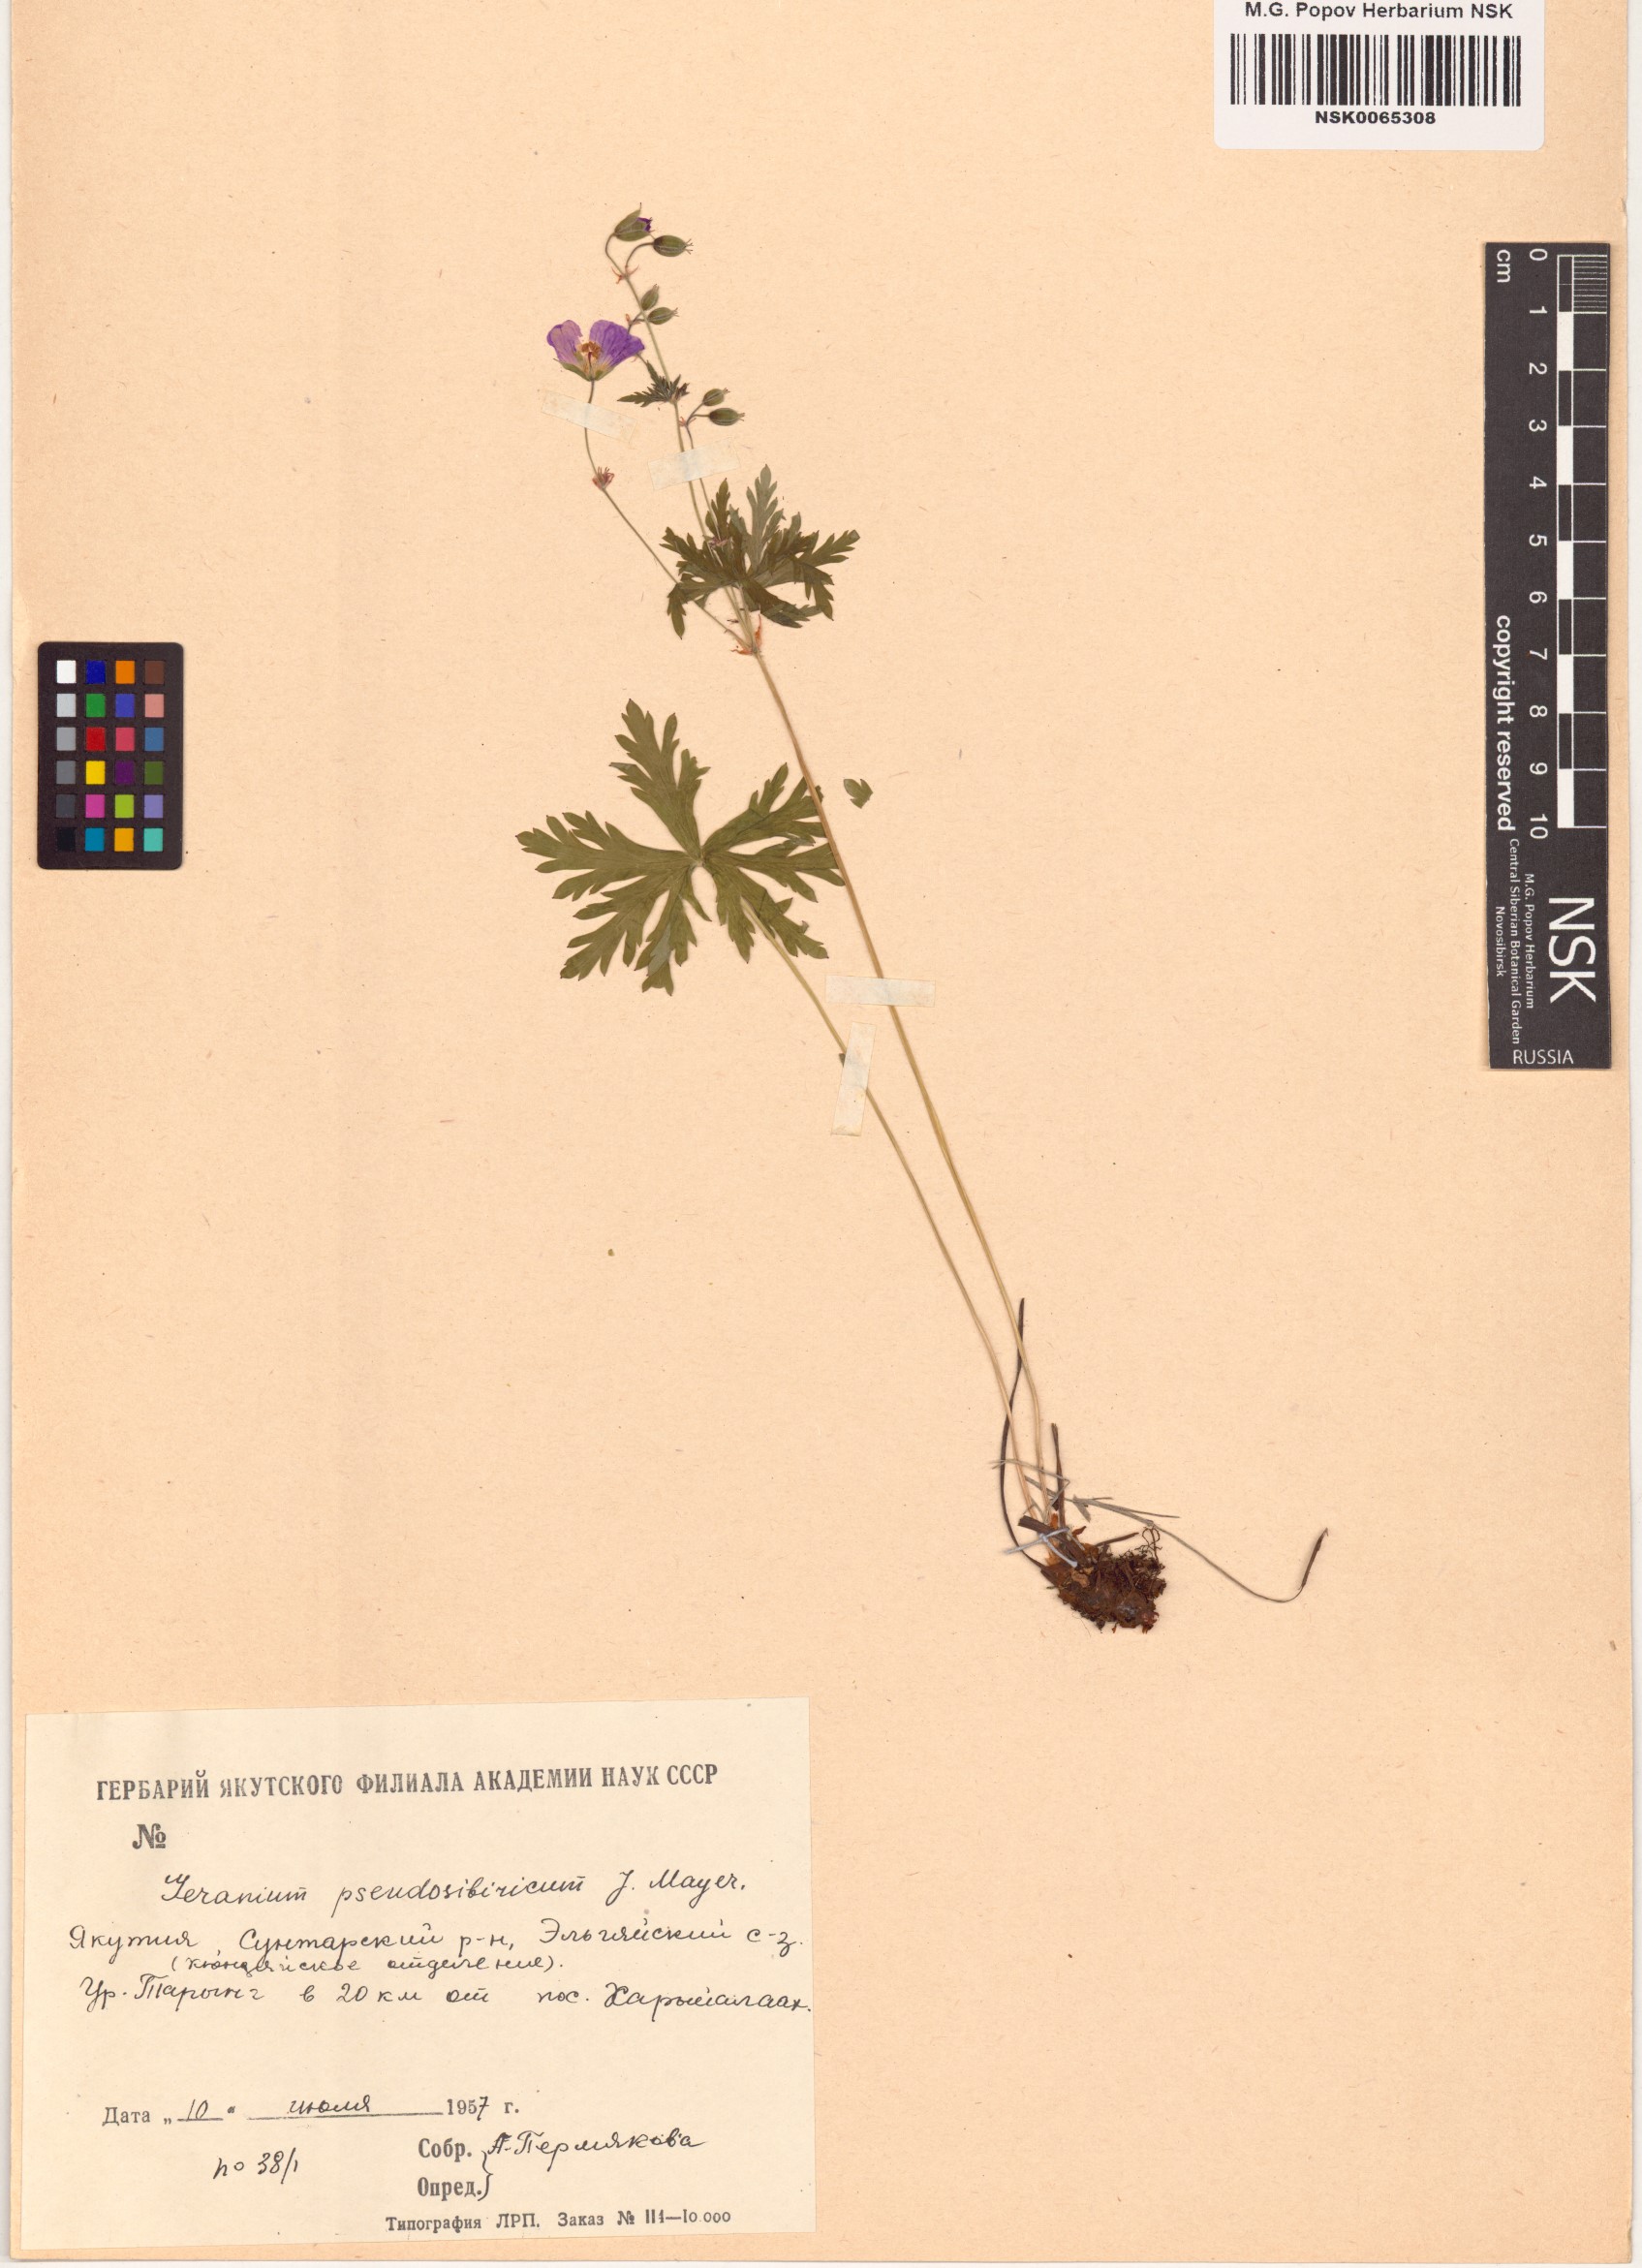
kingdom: Plantae
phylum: Tracheophyta
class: Magnoliopsida
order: Geraniales
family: Geraniaceae
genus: Geranium
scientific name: Geranium pseudosibiricum
